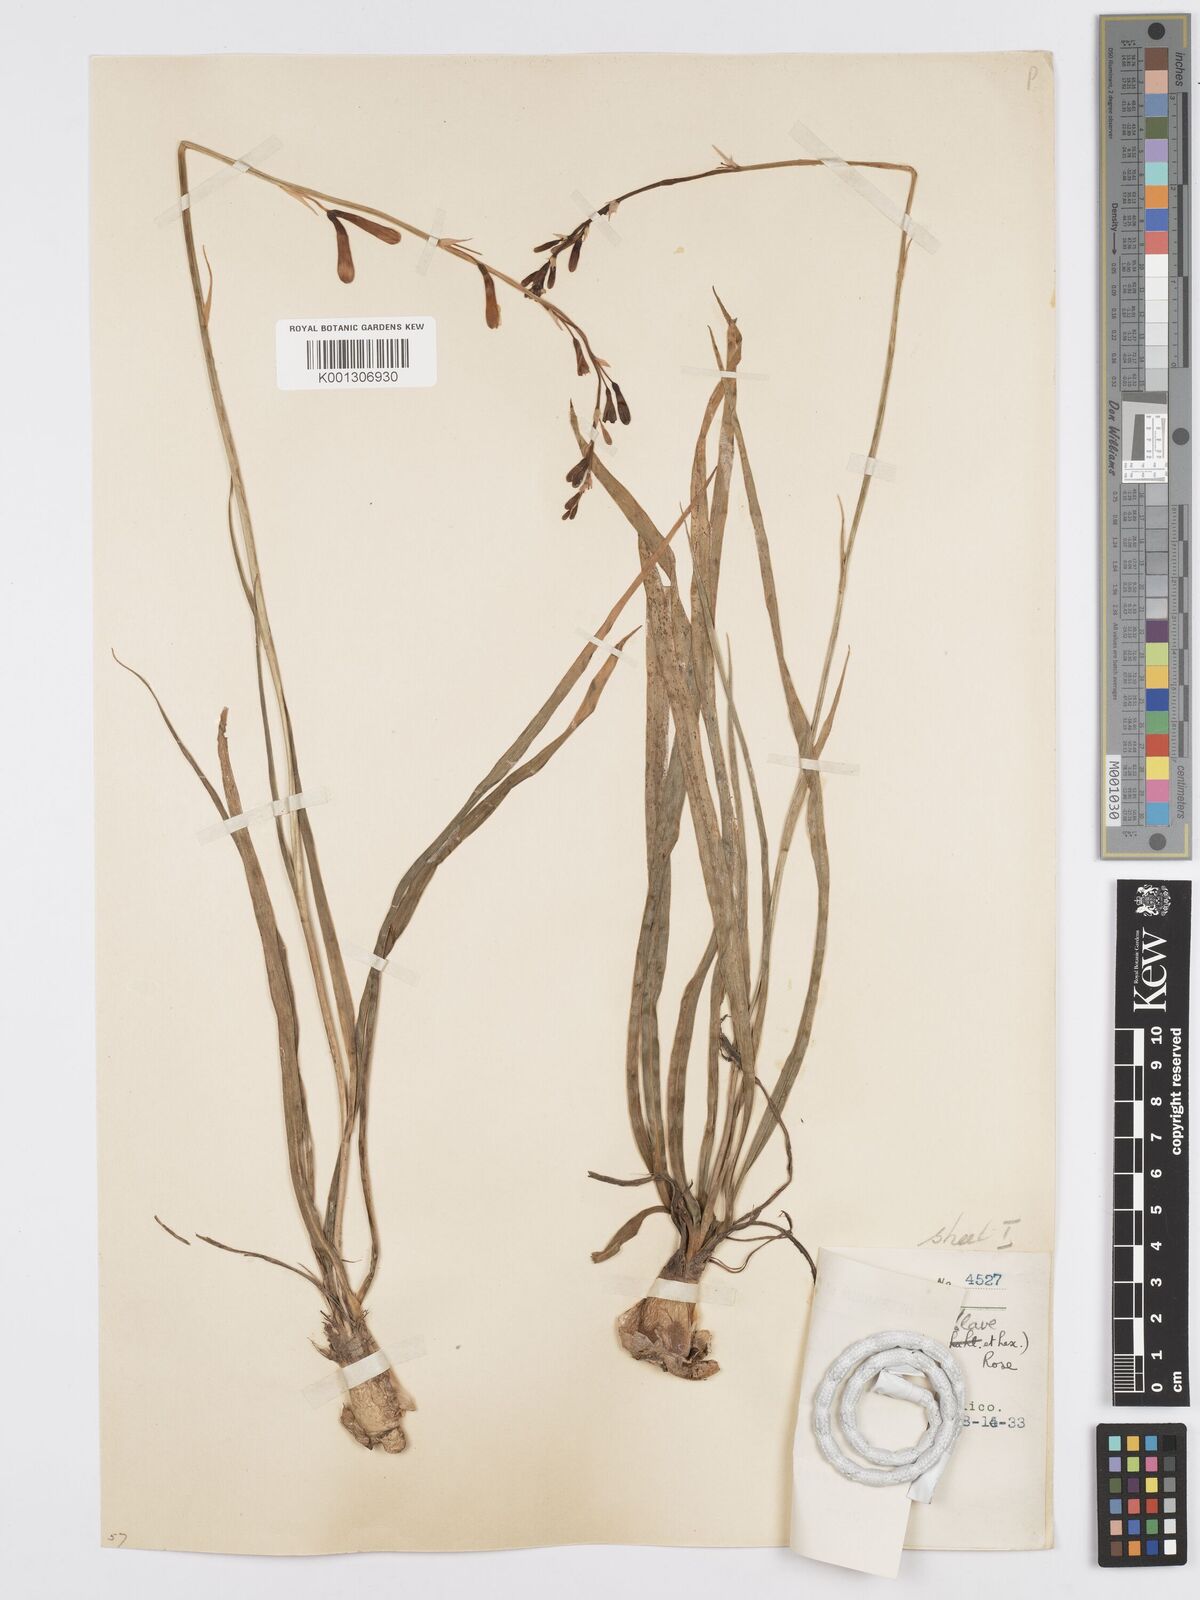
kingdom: Plantae
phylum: Tracheophyta
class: Liliopsida
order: Asparagales
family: Asparagaceae
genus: Agave
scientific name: Agave coetocapnia
